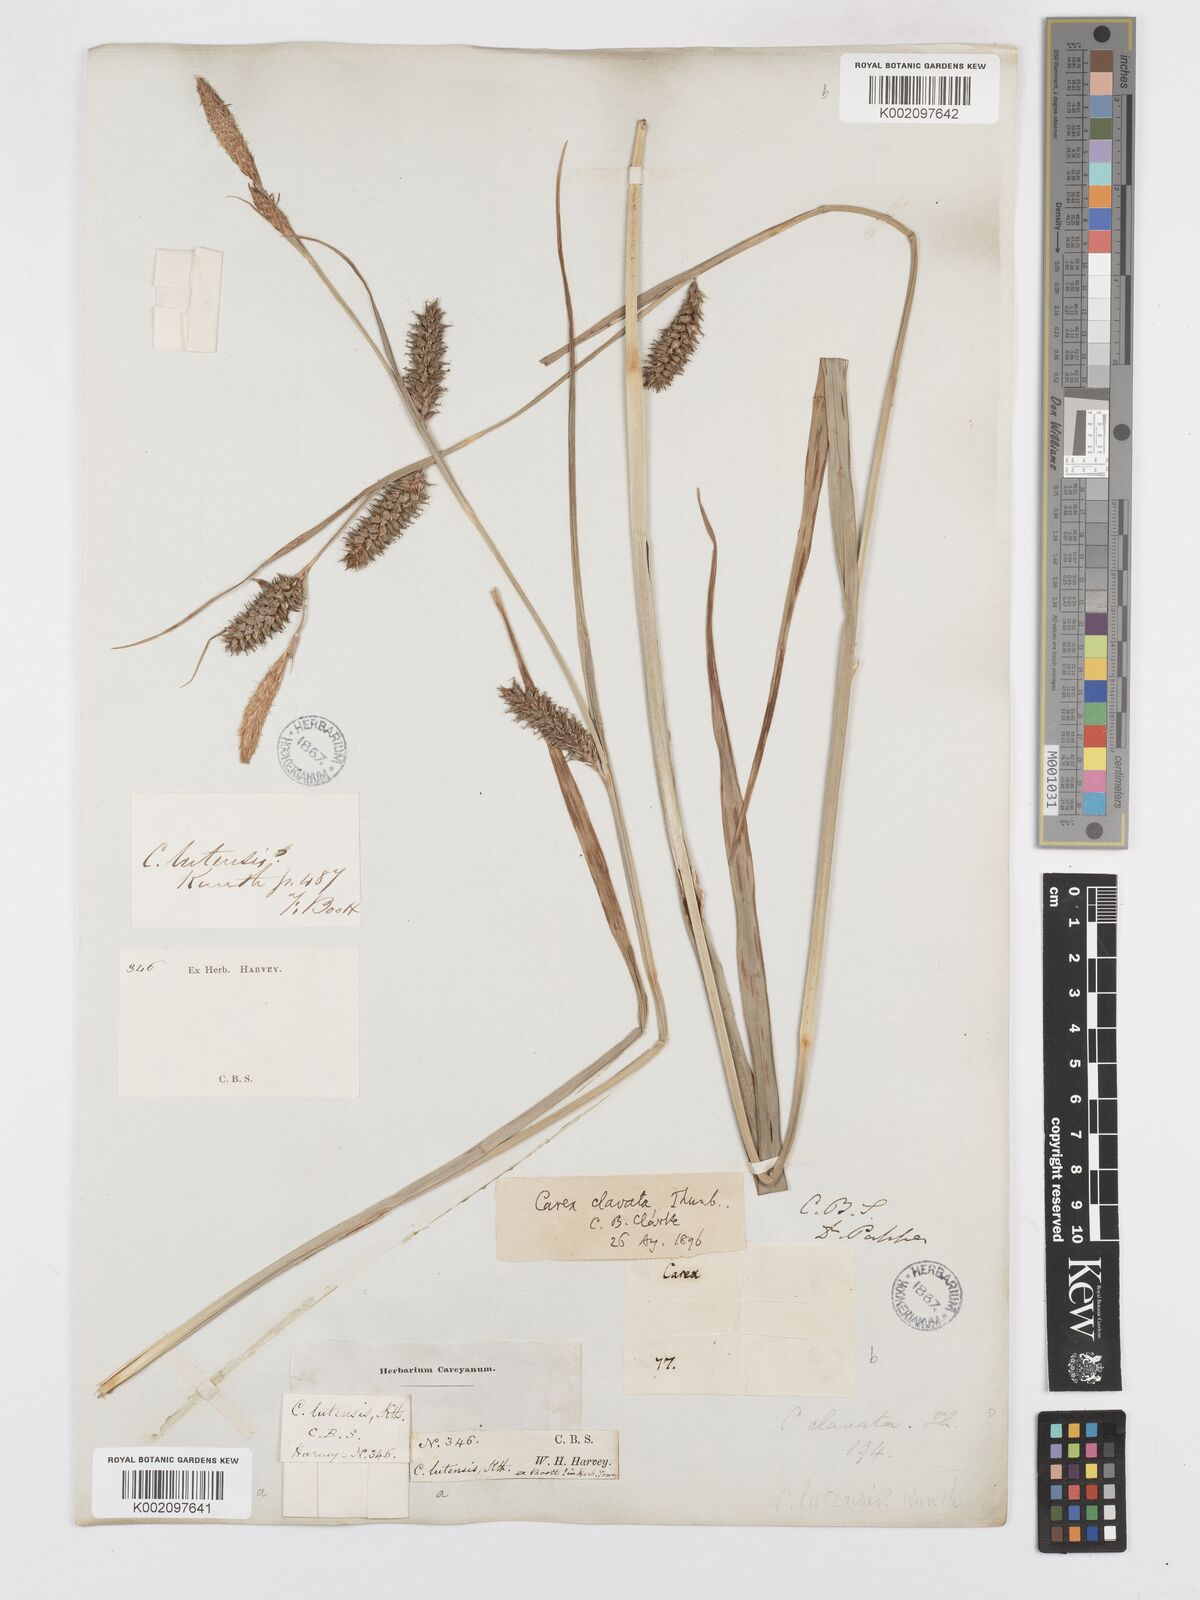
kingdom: Plantae
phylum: Tracheophyta
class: Liliopsida
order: Poales
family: Cyperaceae
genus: Carex
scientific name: Carex clavata
